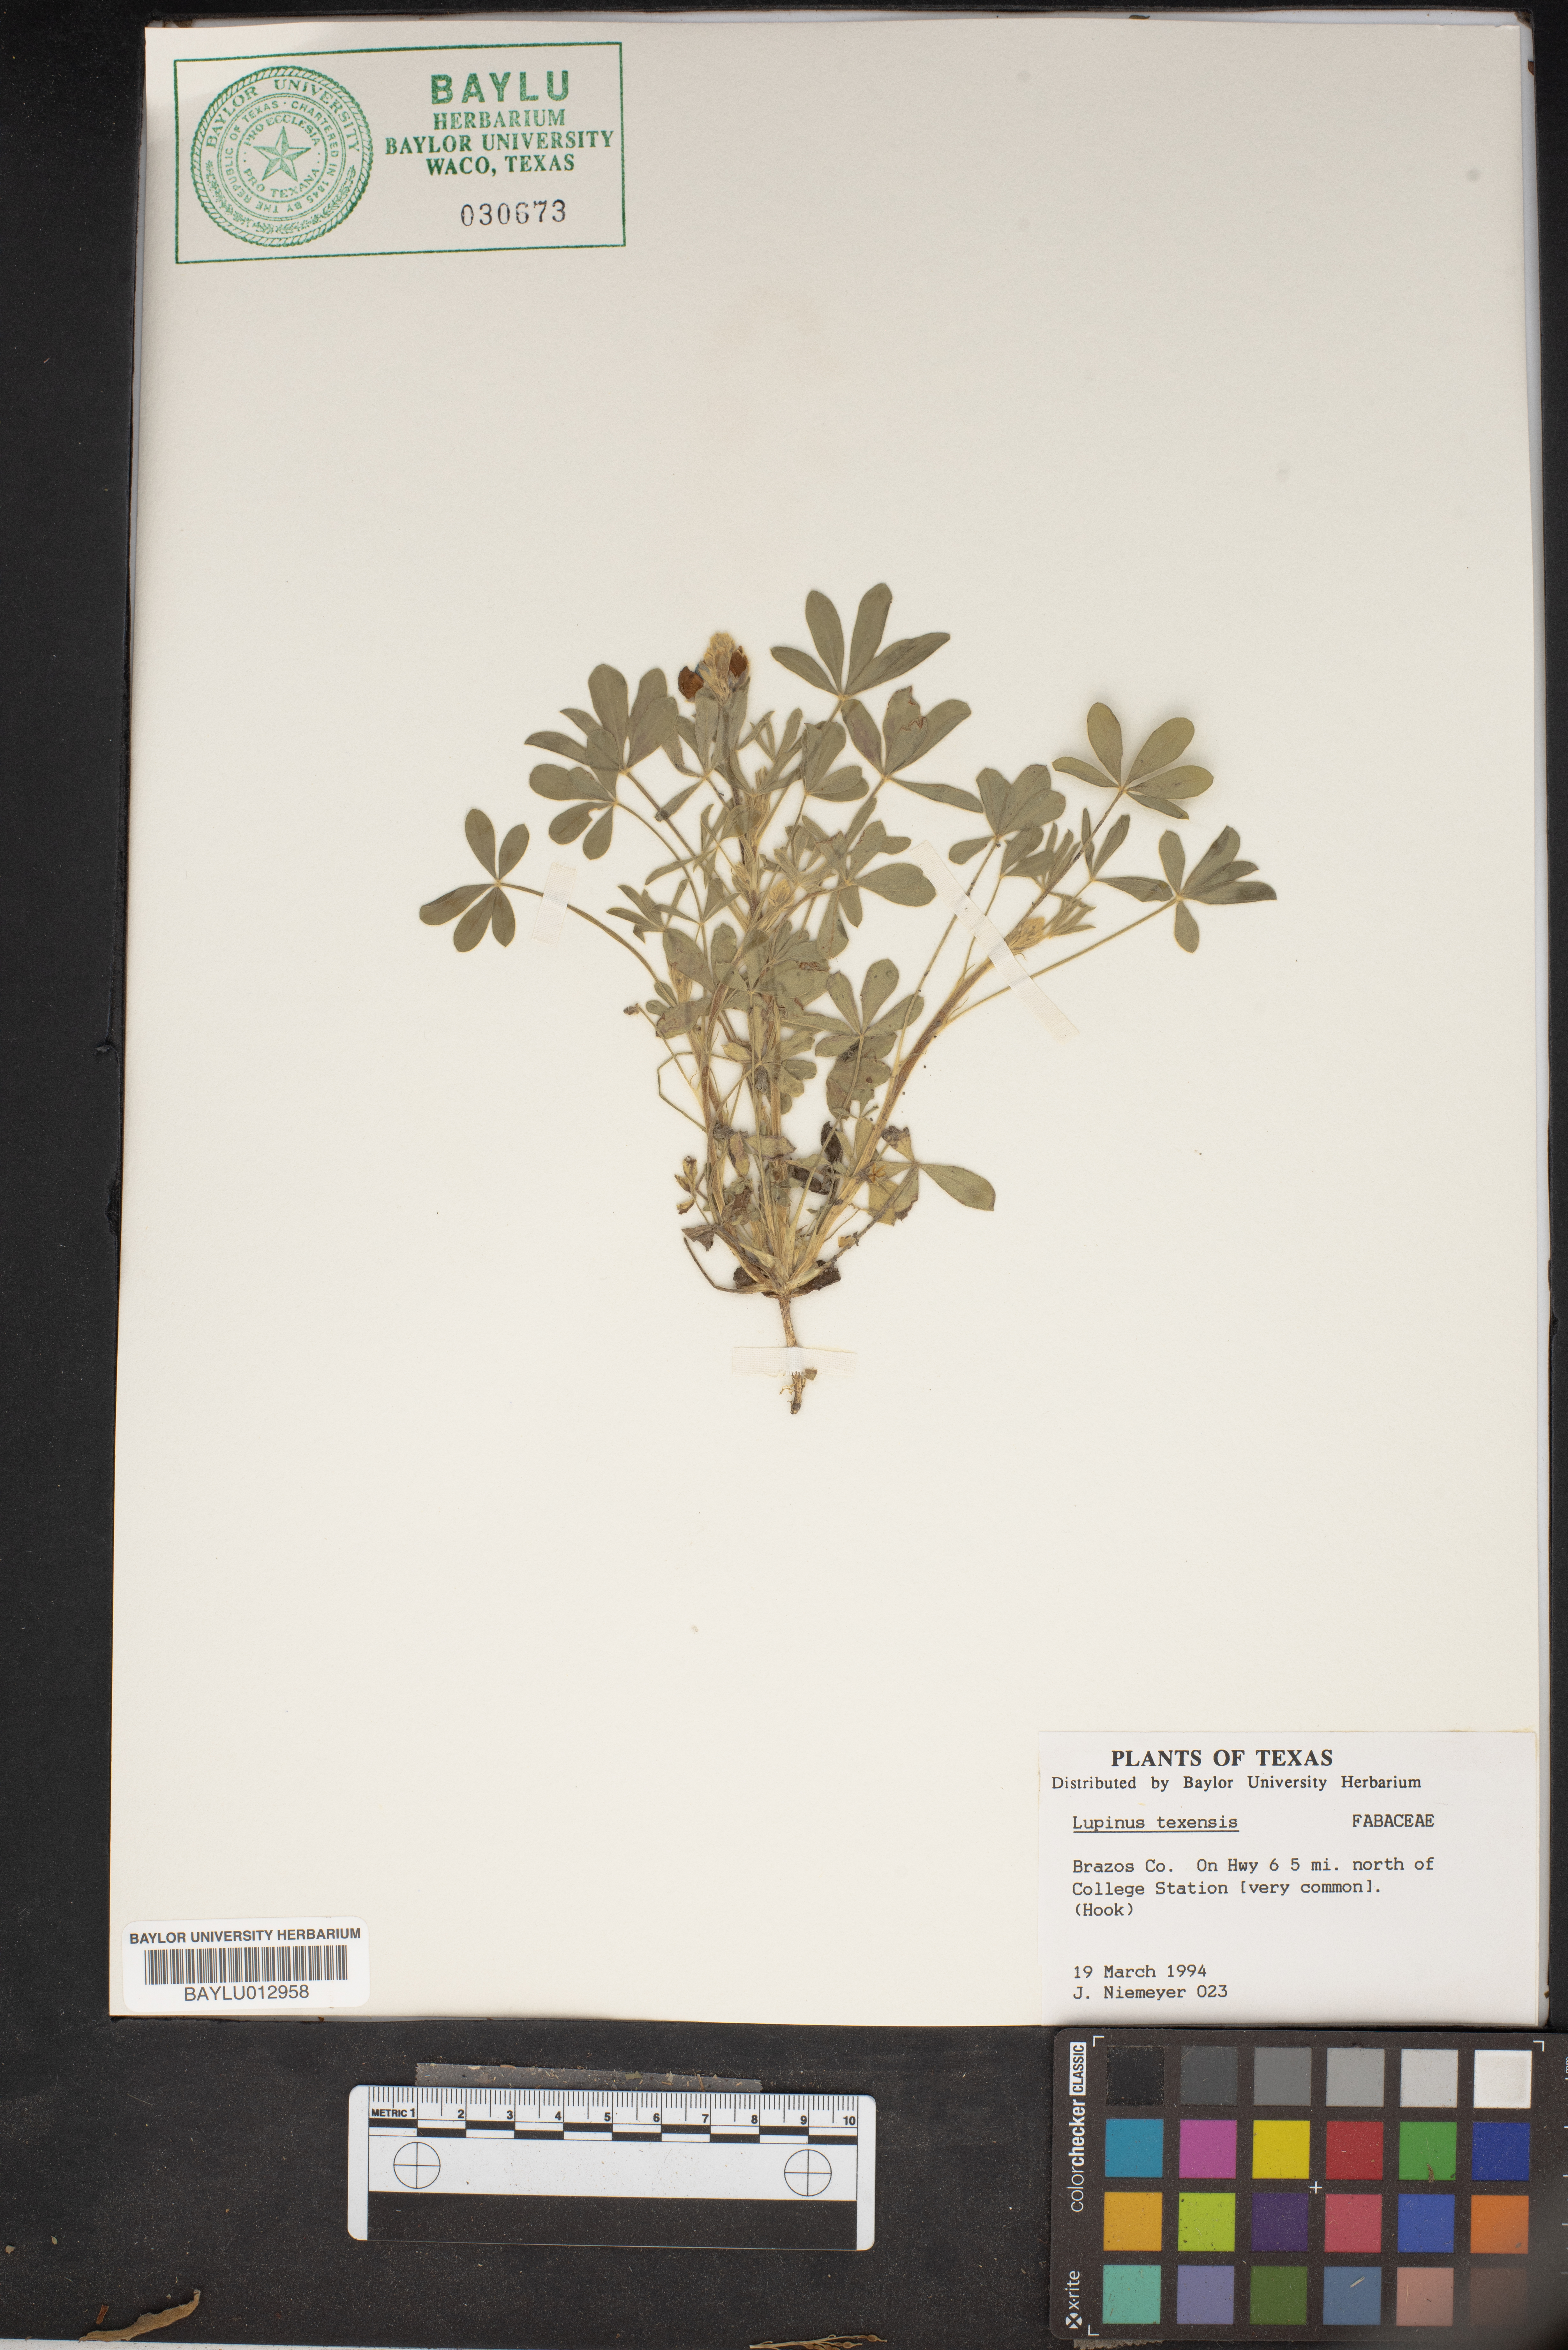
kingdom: Plantae
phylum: Tracheophyta
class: Magnoliopsida
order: Fabales
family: Fabaceae
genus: Lupinus
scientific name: Lupinus texensis
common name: Texas bluebonnet
